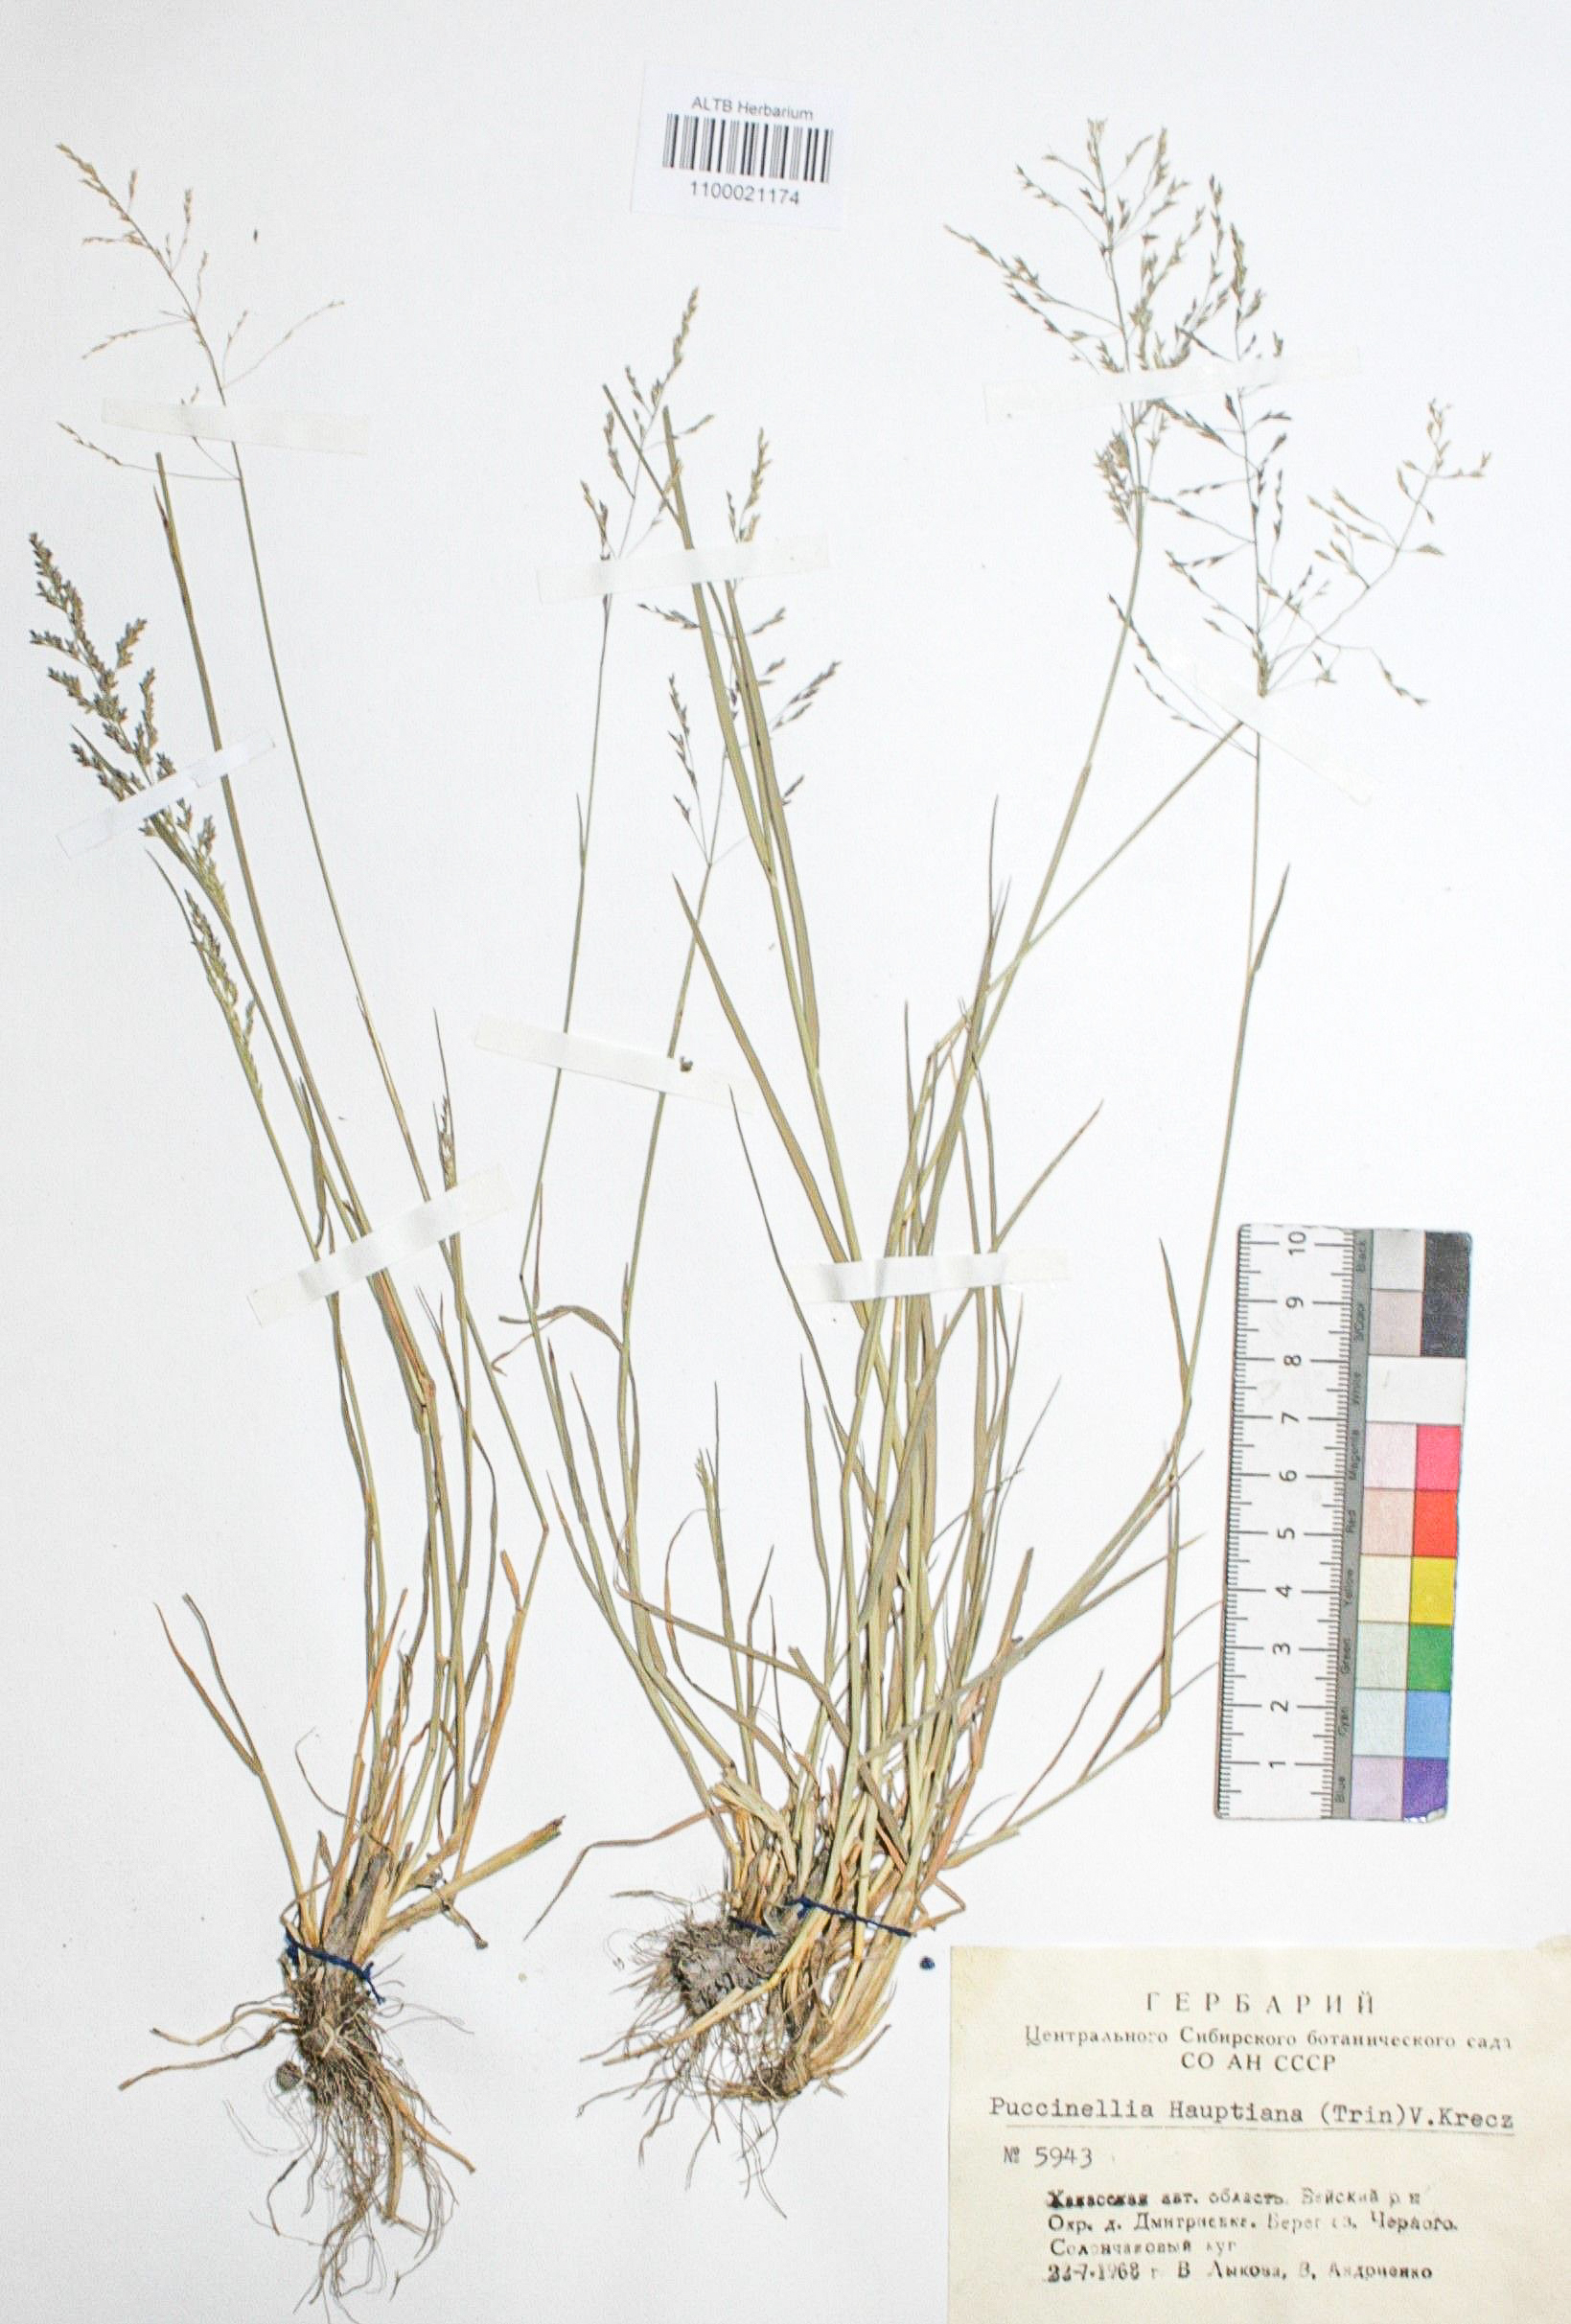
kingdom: Plantae
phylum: Tracheophyta
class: Liliopsida
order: Poales
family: Poaceae
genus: Puccinellia
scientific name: Puccinellia hauptiana
